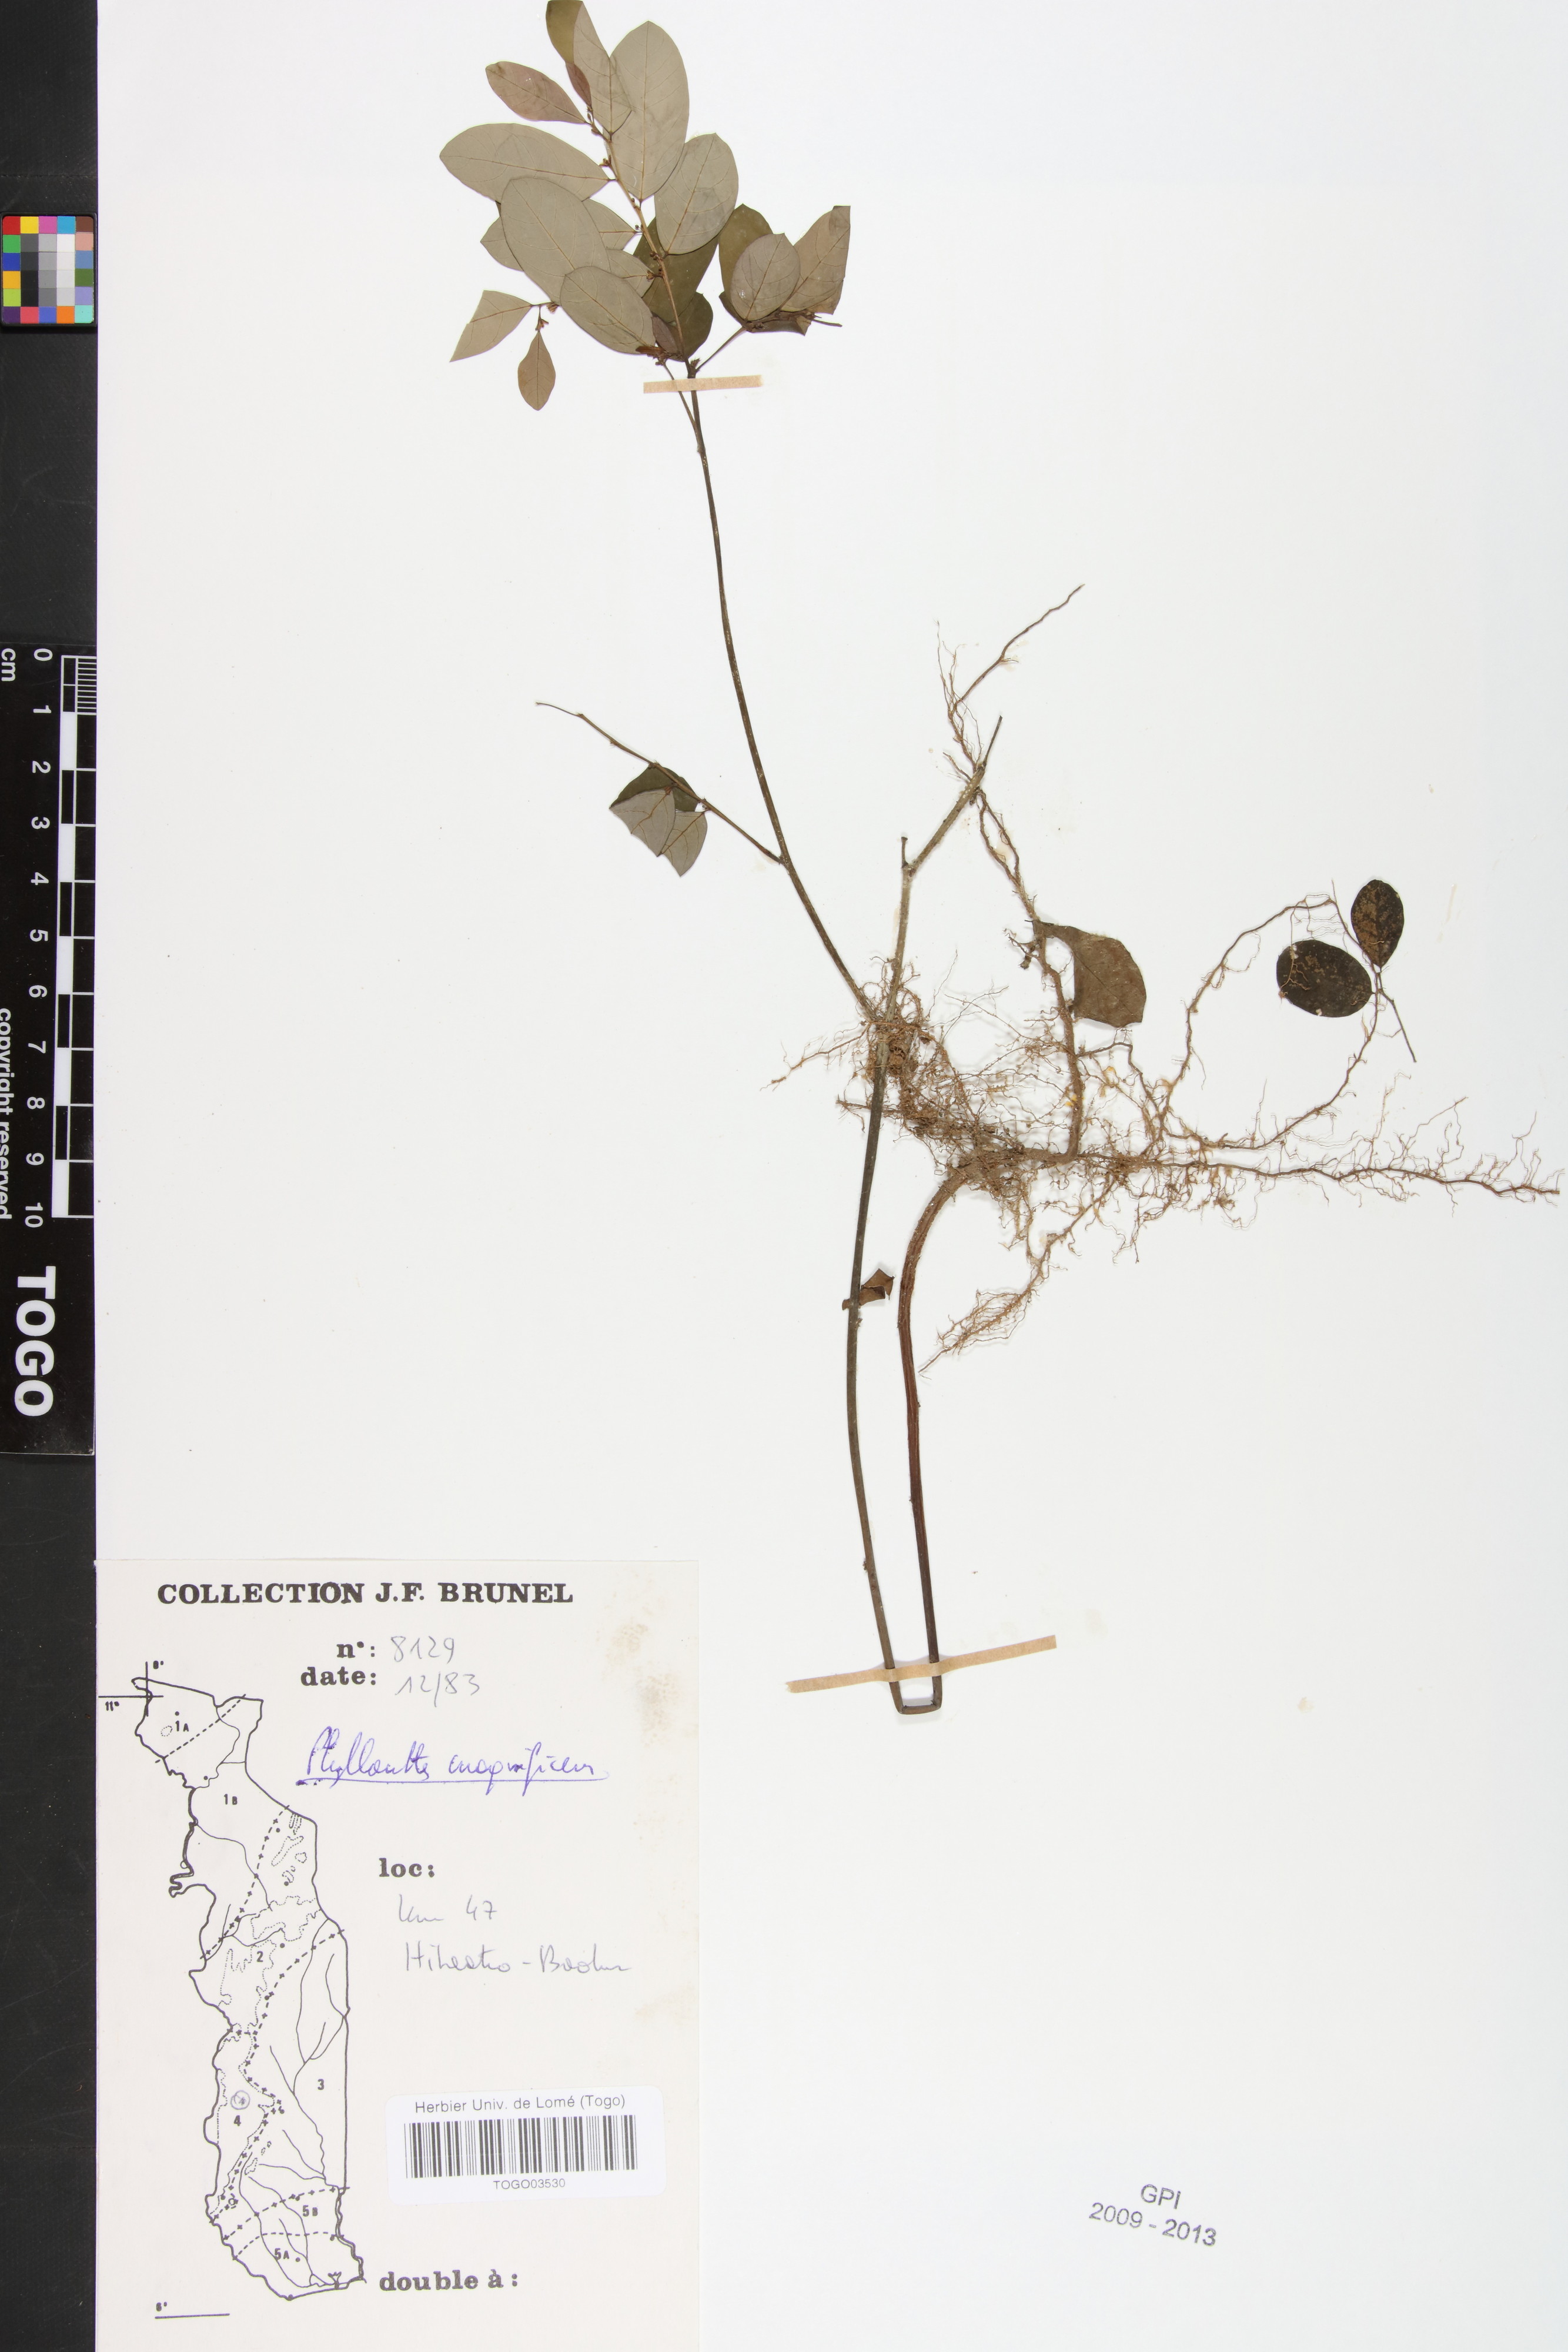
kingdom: Plantae
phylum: Tracheophyta
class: Magnoliopsida
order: Malpighiales
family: Phyllanthaceae
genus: Phyllanthus
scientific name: Phyllanthus magnificens
